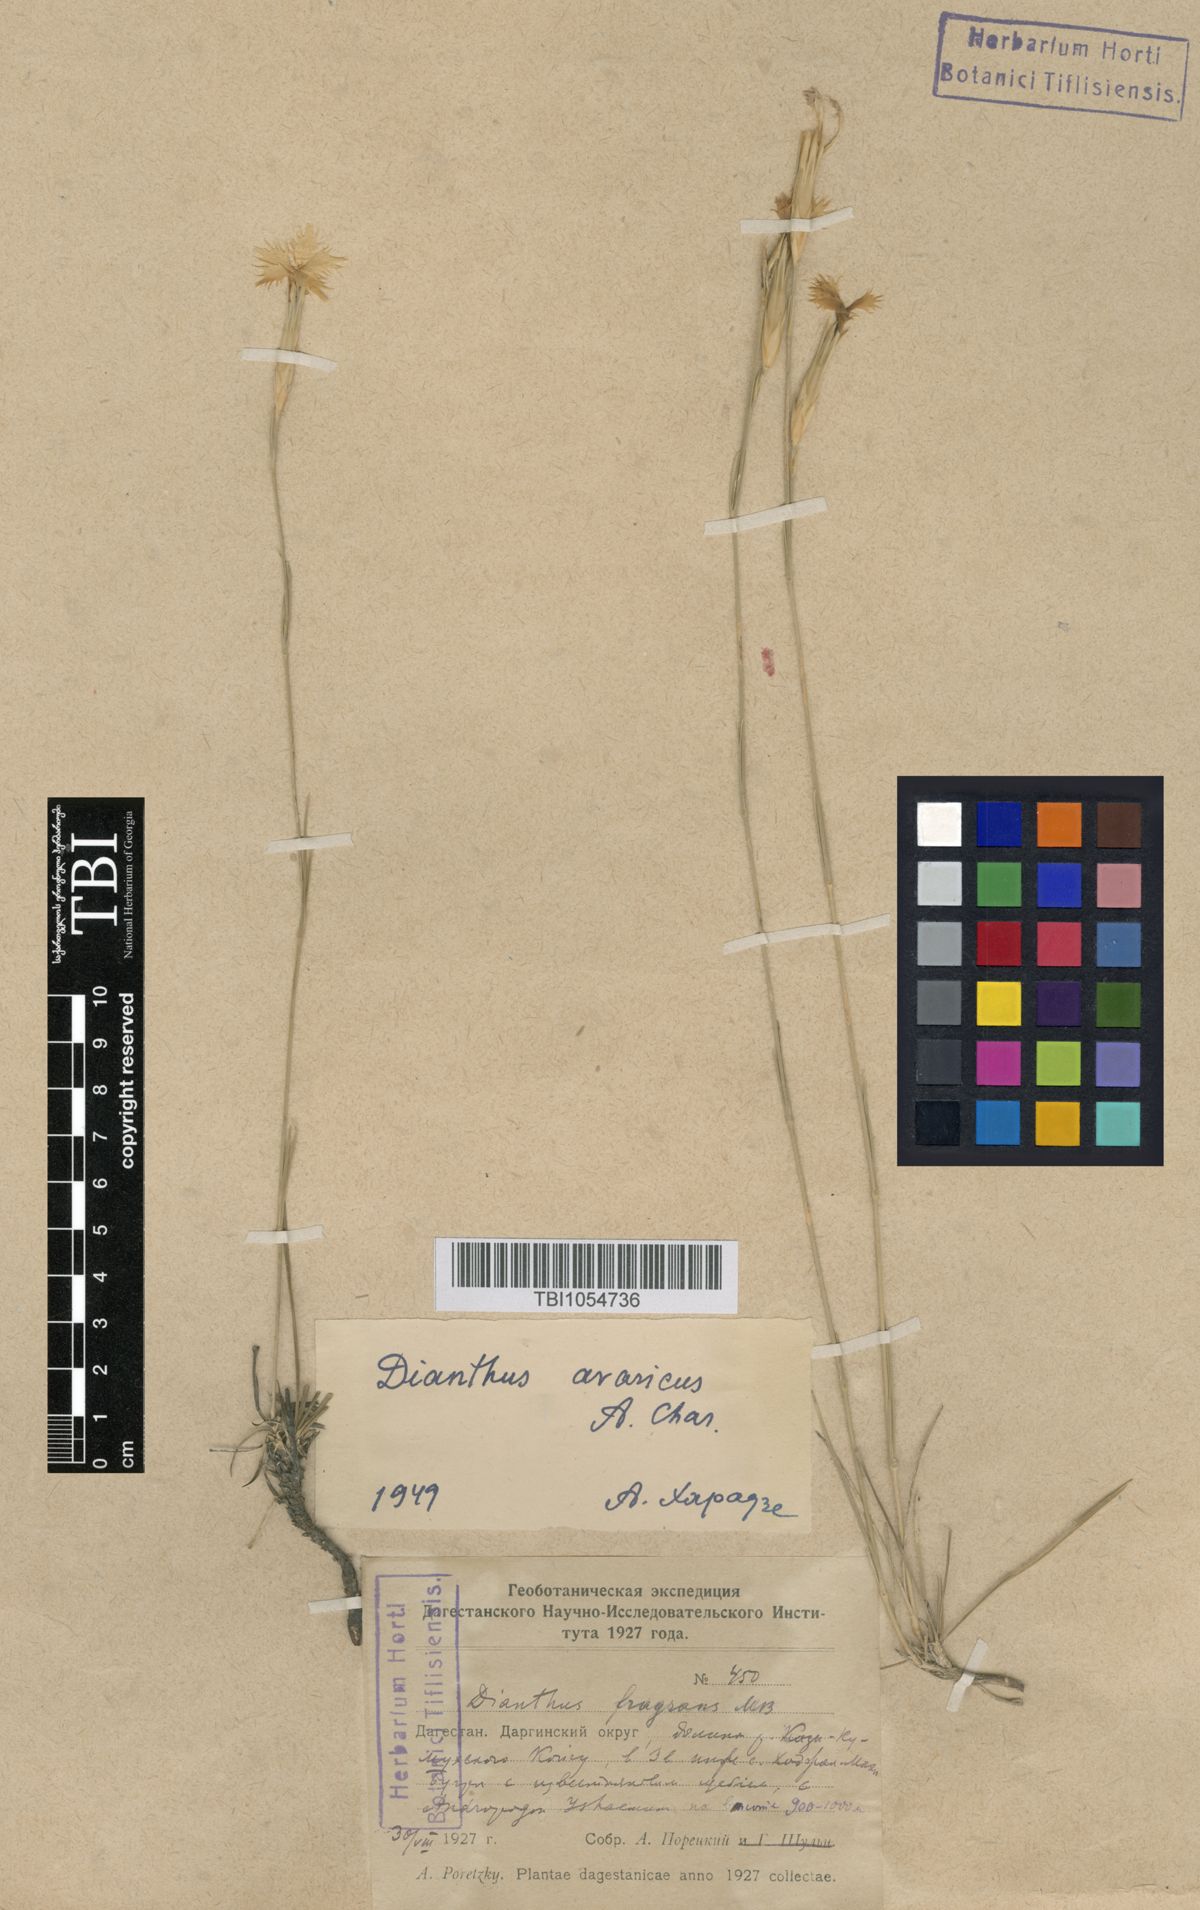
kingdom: Plantae
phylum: Tracheophyta
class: Magnoliopsida
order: Caryophyllales
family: Caryophyllaceae
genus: Dianthus
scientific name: Dianthus
